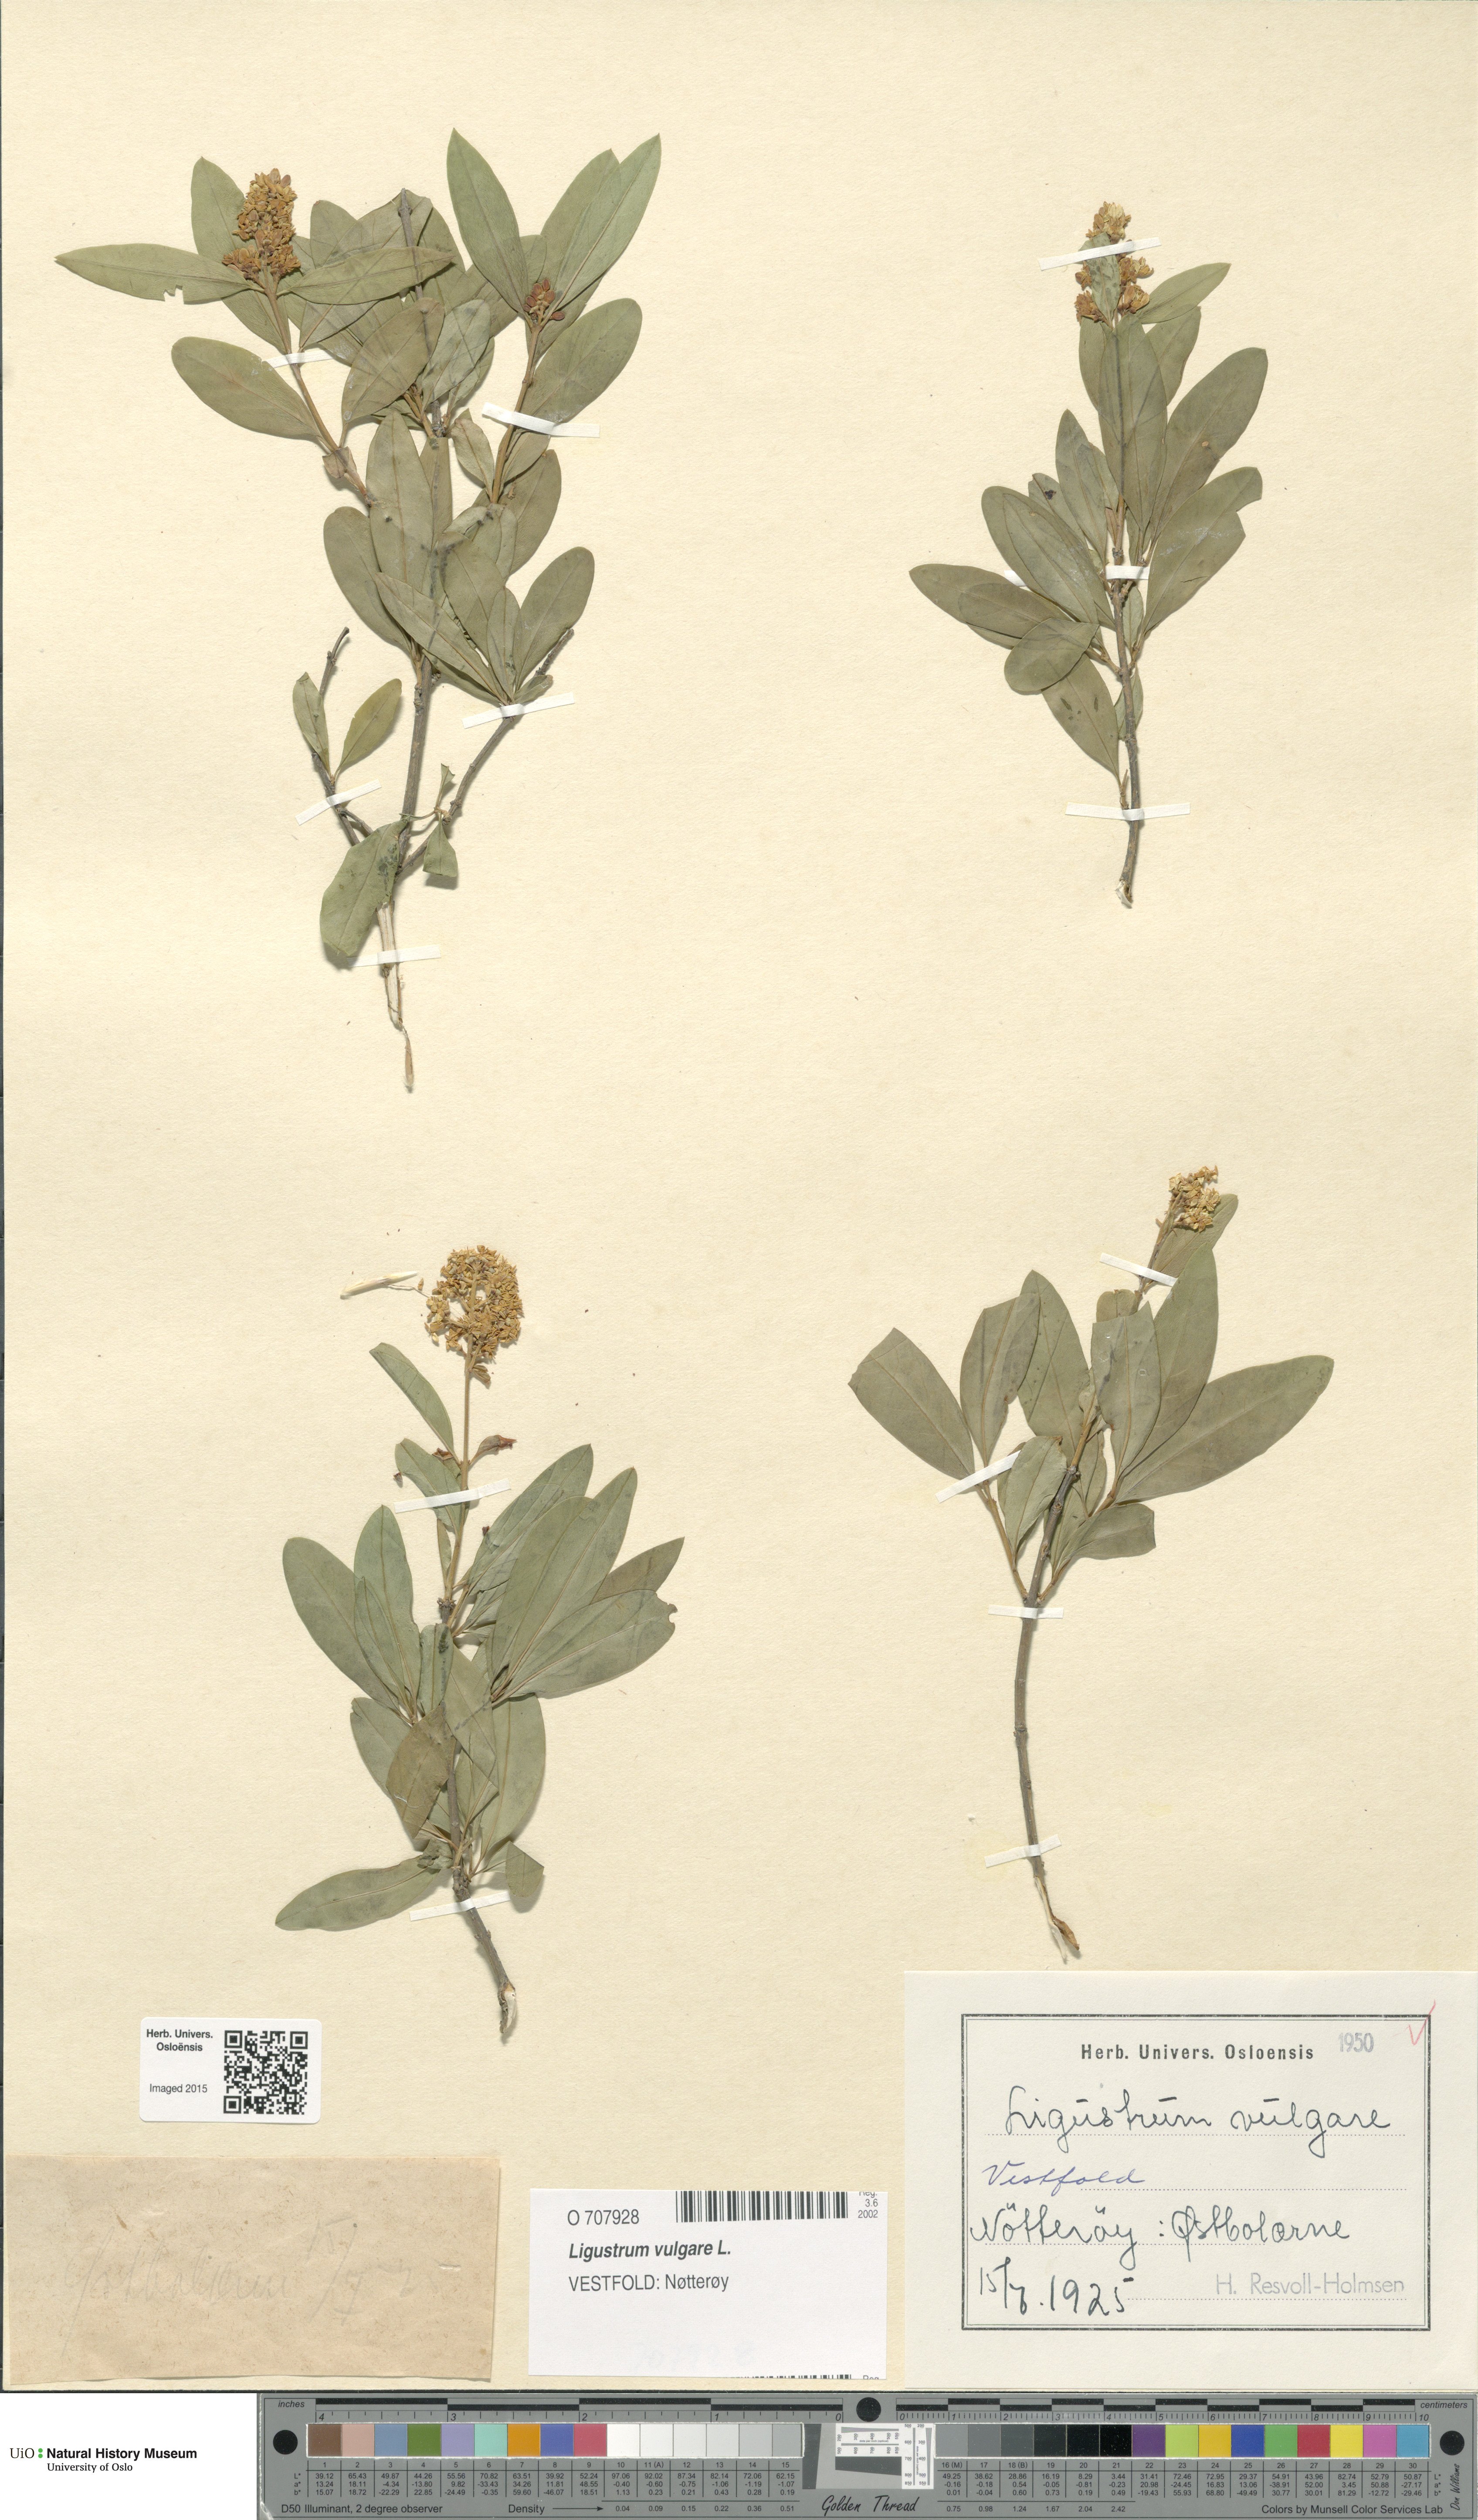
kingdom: Plantae
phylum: Tracheophyta
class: Magnoliopsida
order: Lamiales
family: Oleaceae
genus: Ligustrum
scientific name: Ligustrum vulgare
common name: Wild privet
